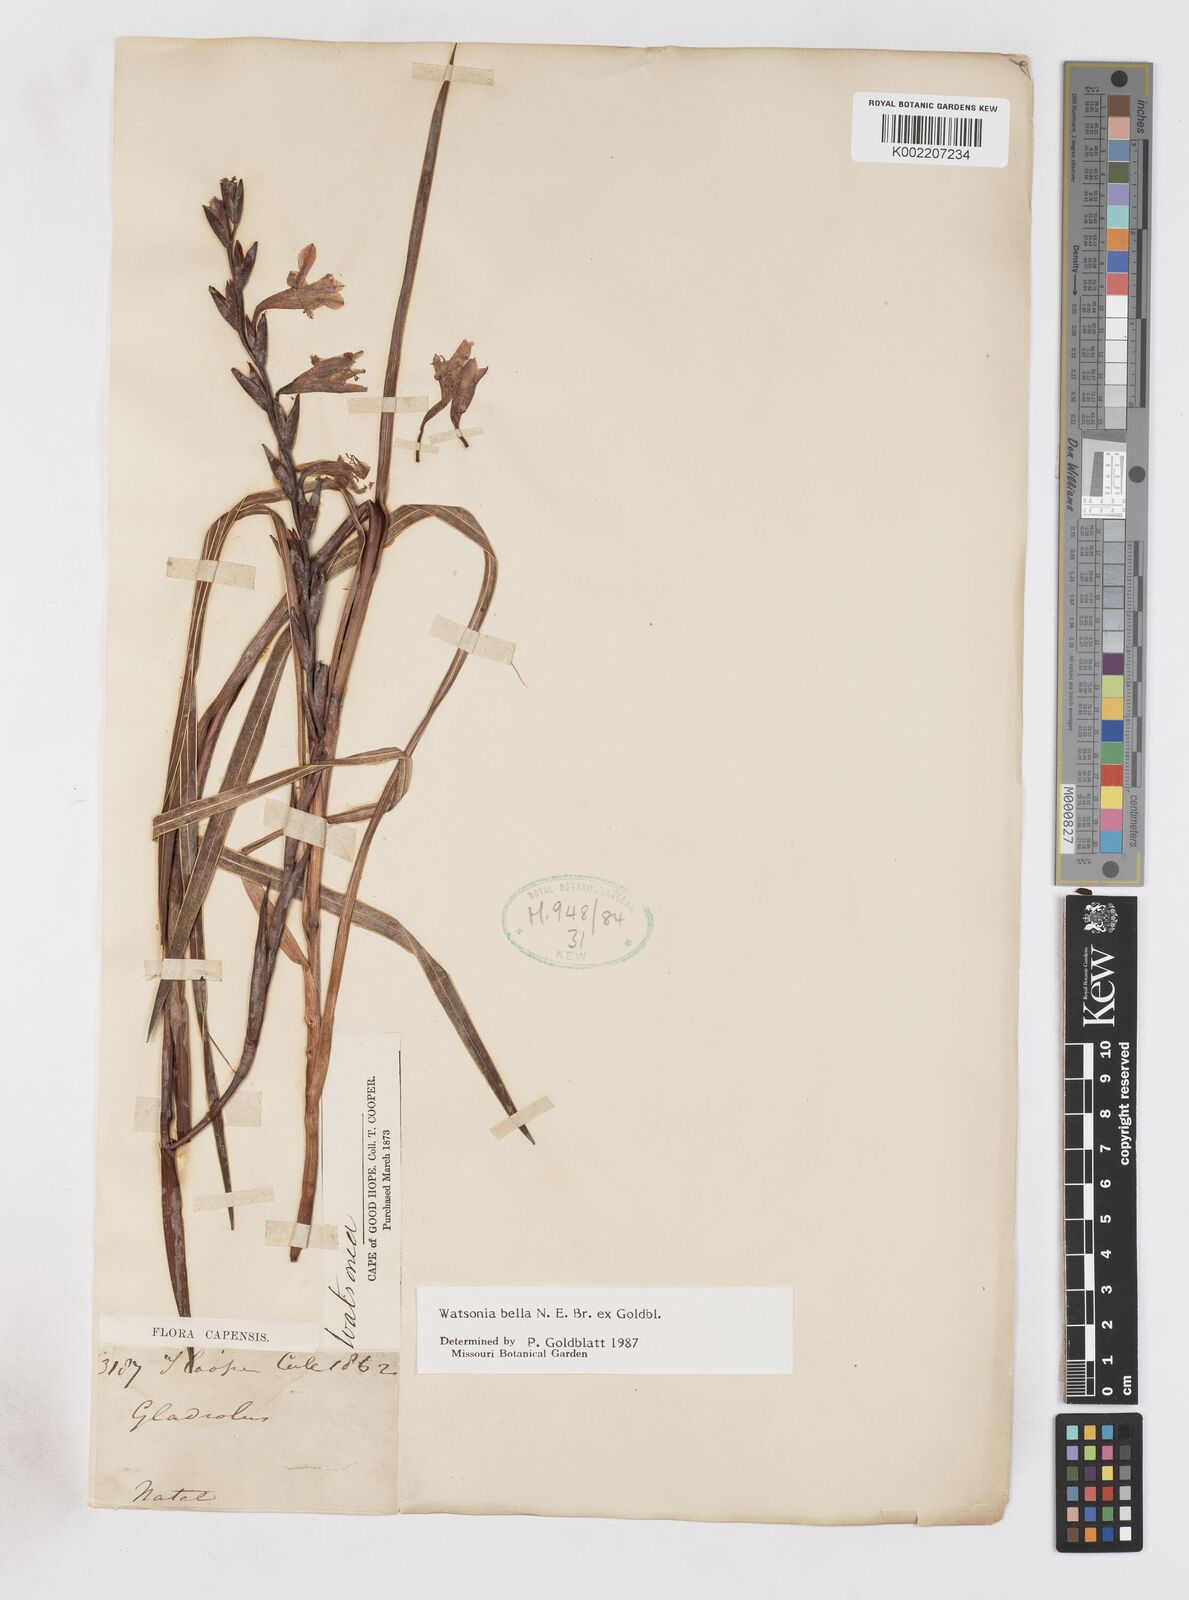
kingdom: Plantae
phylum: Tracheophyta
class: Liliopsida
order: Asparagales
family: Iridaceae
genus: Watsonia
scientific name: Watsonia bella
